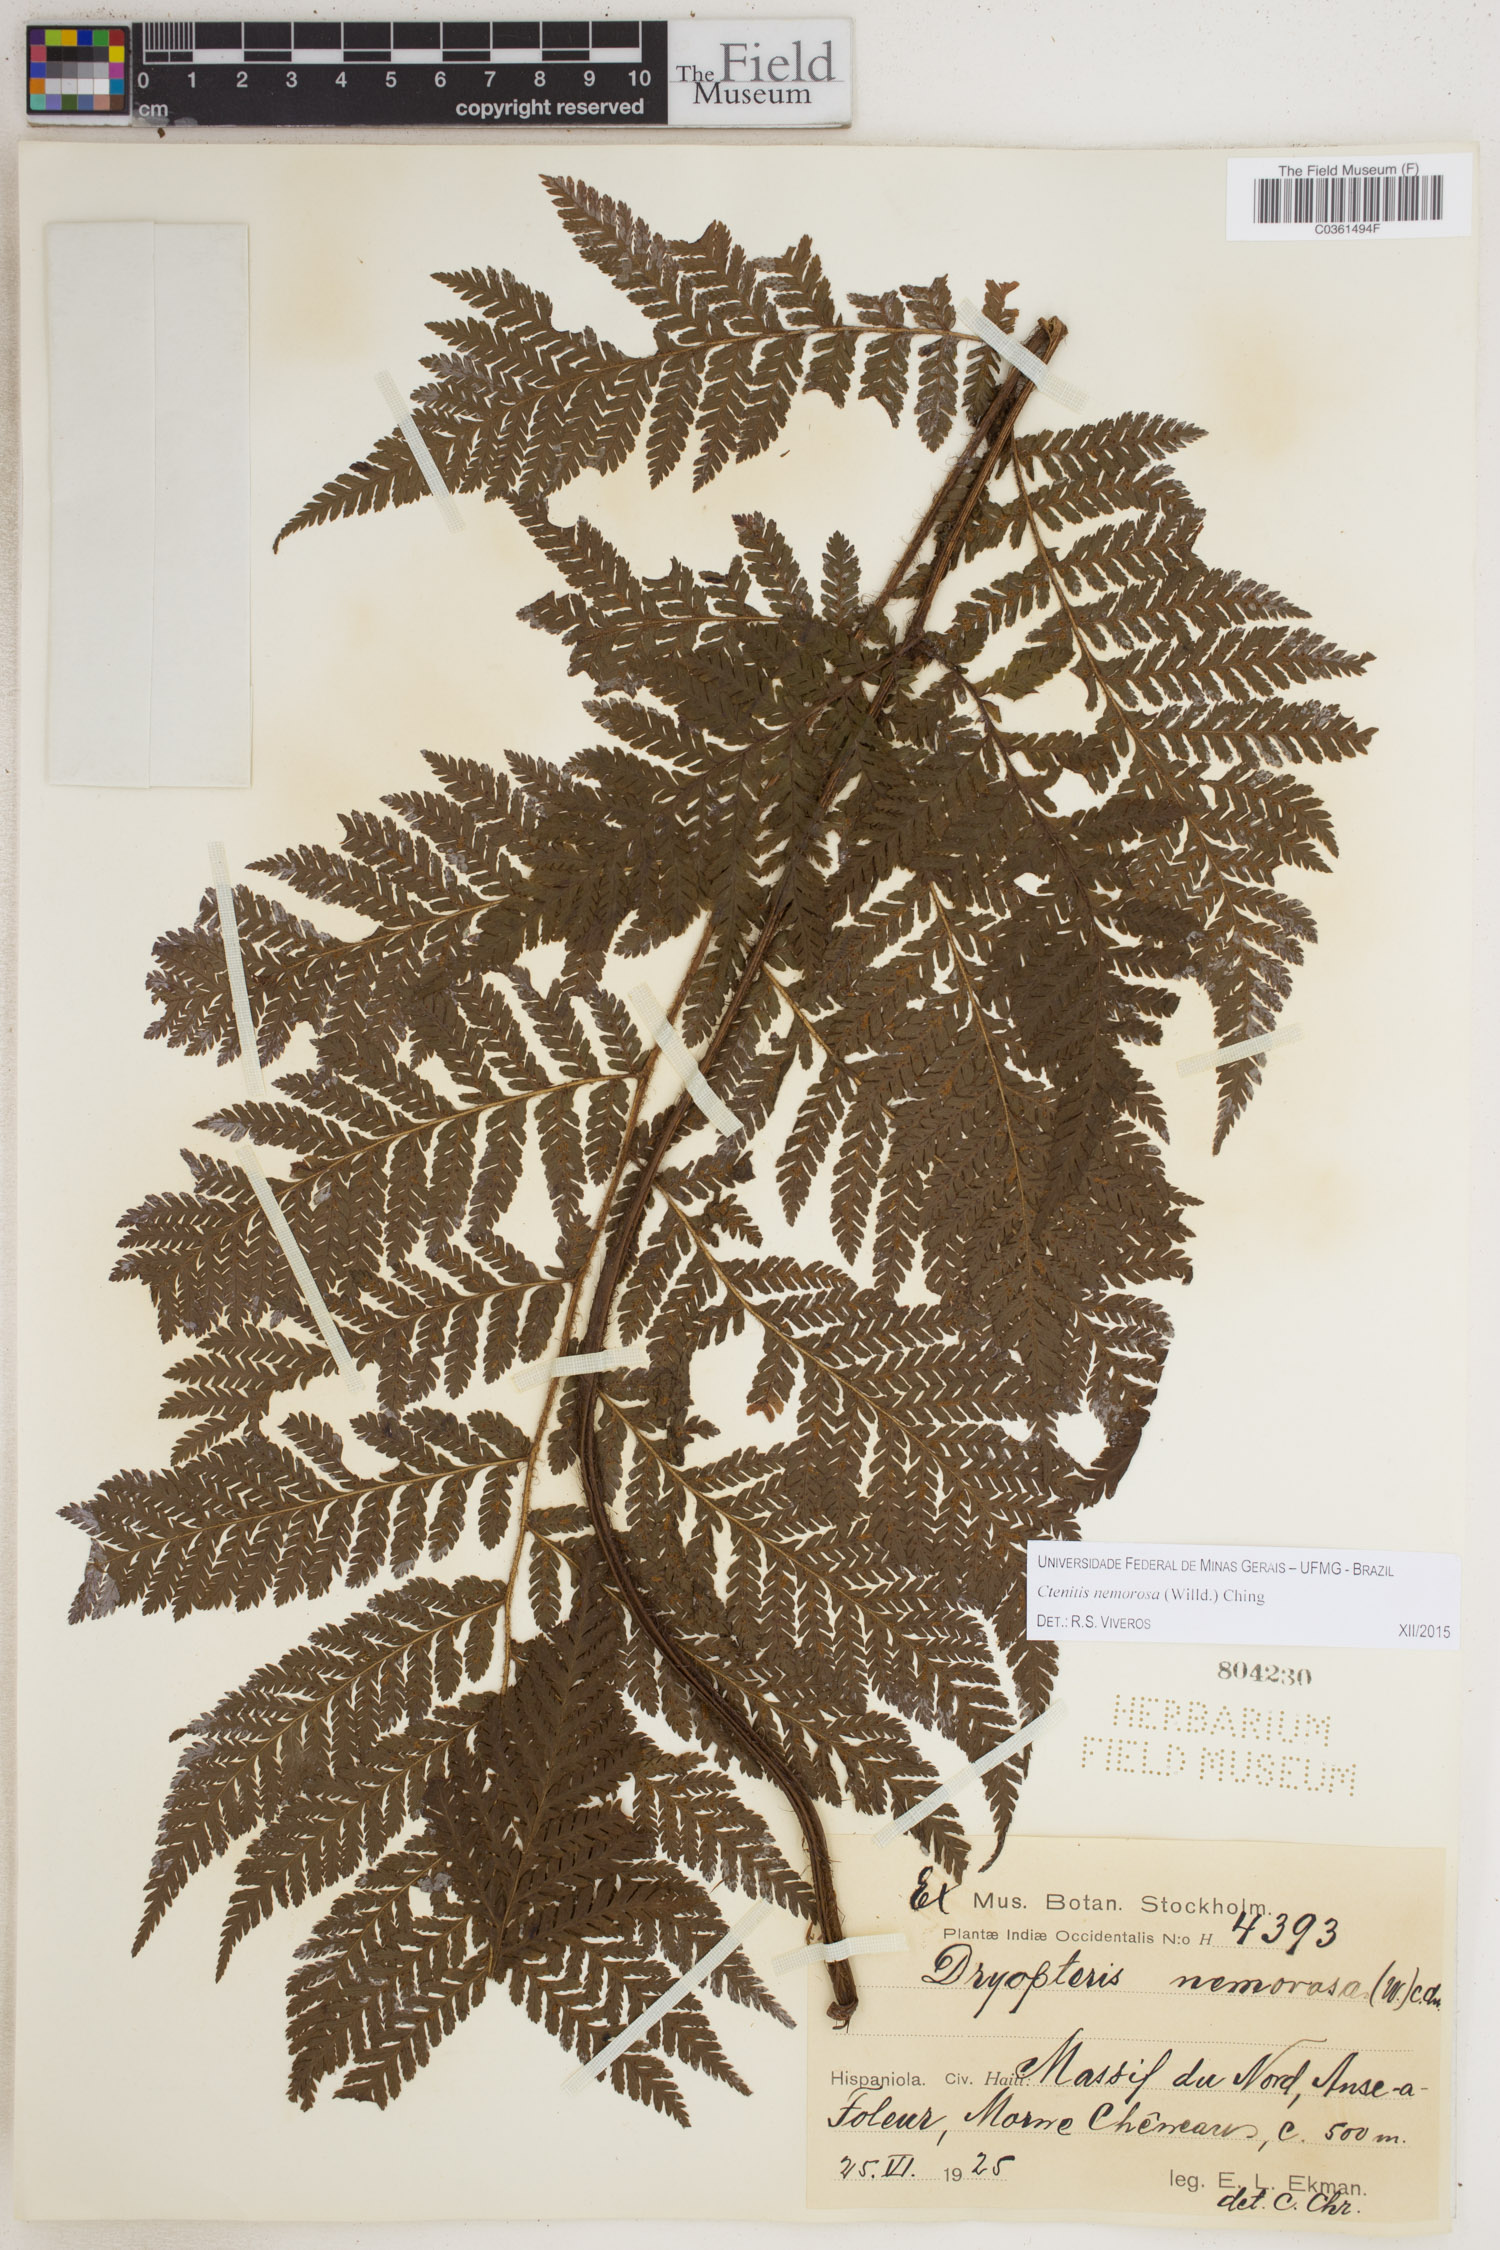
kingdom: Plantae
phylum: Tracheophyta
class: Polypodiopsida
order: Polypodiales
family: Dryopteridaceae
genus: Ctenitis
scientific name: Ctenitis nemorosa
